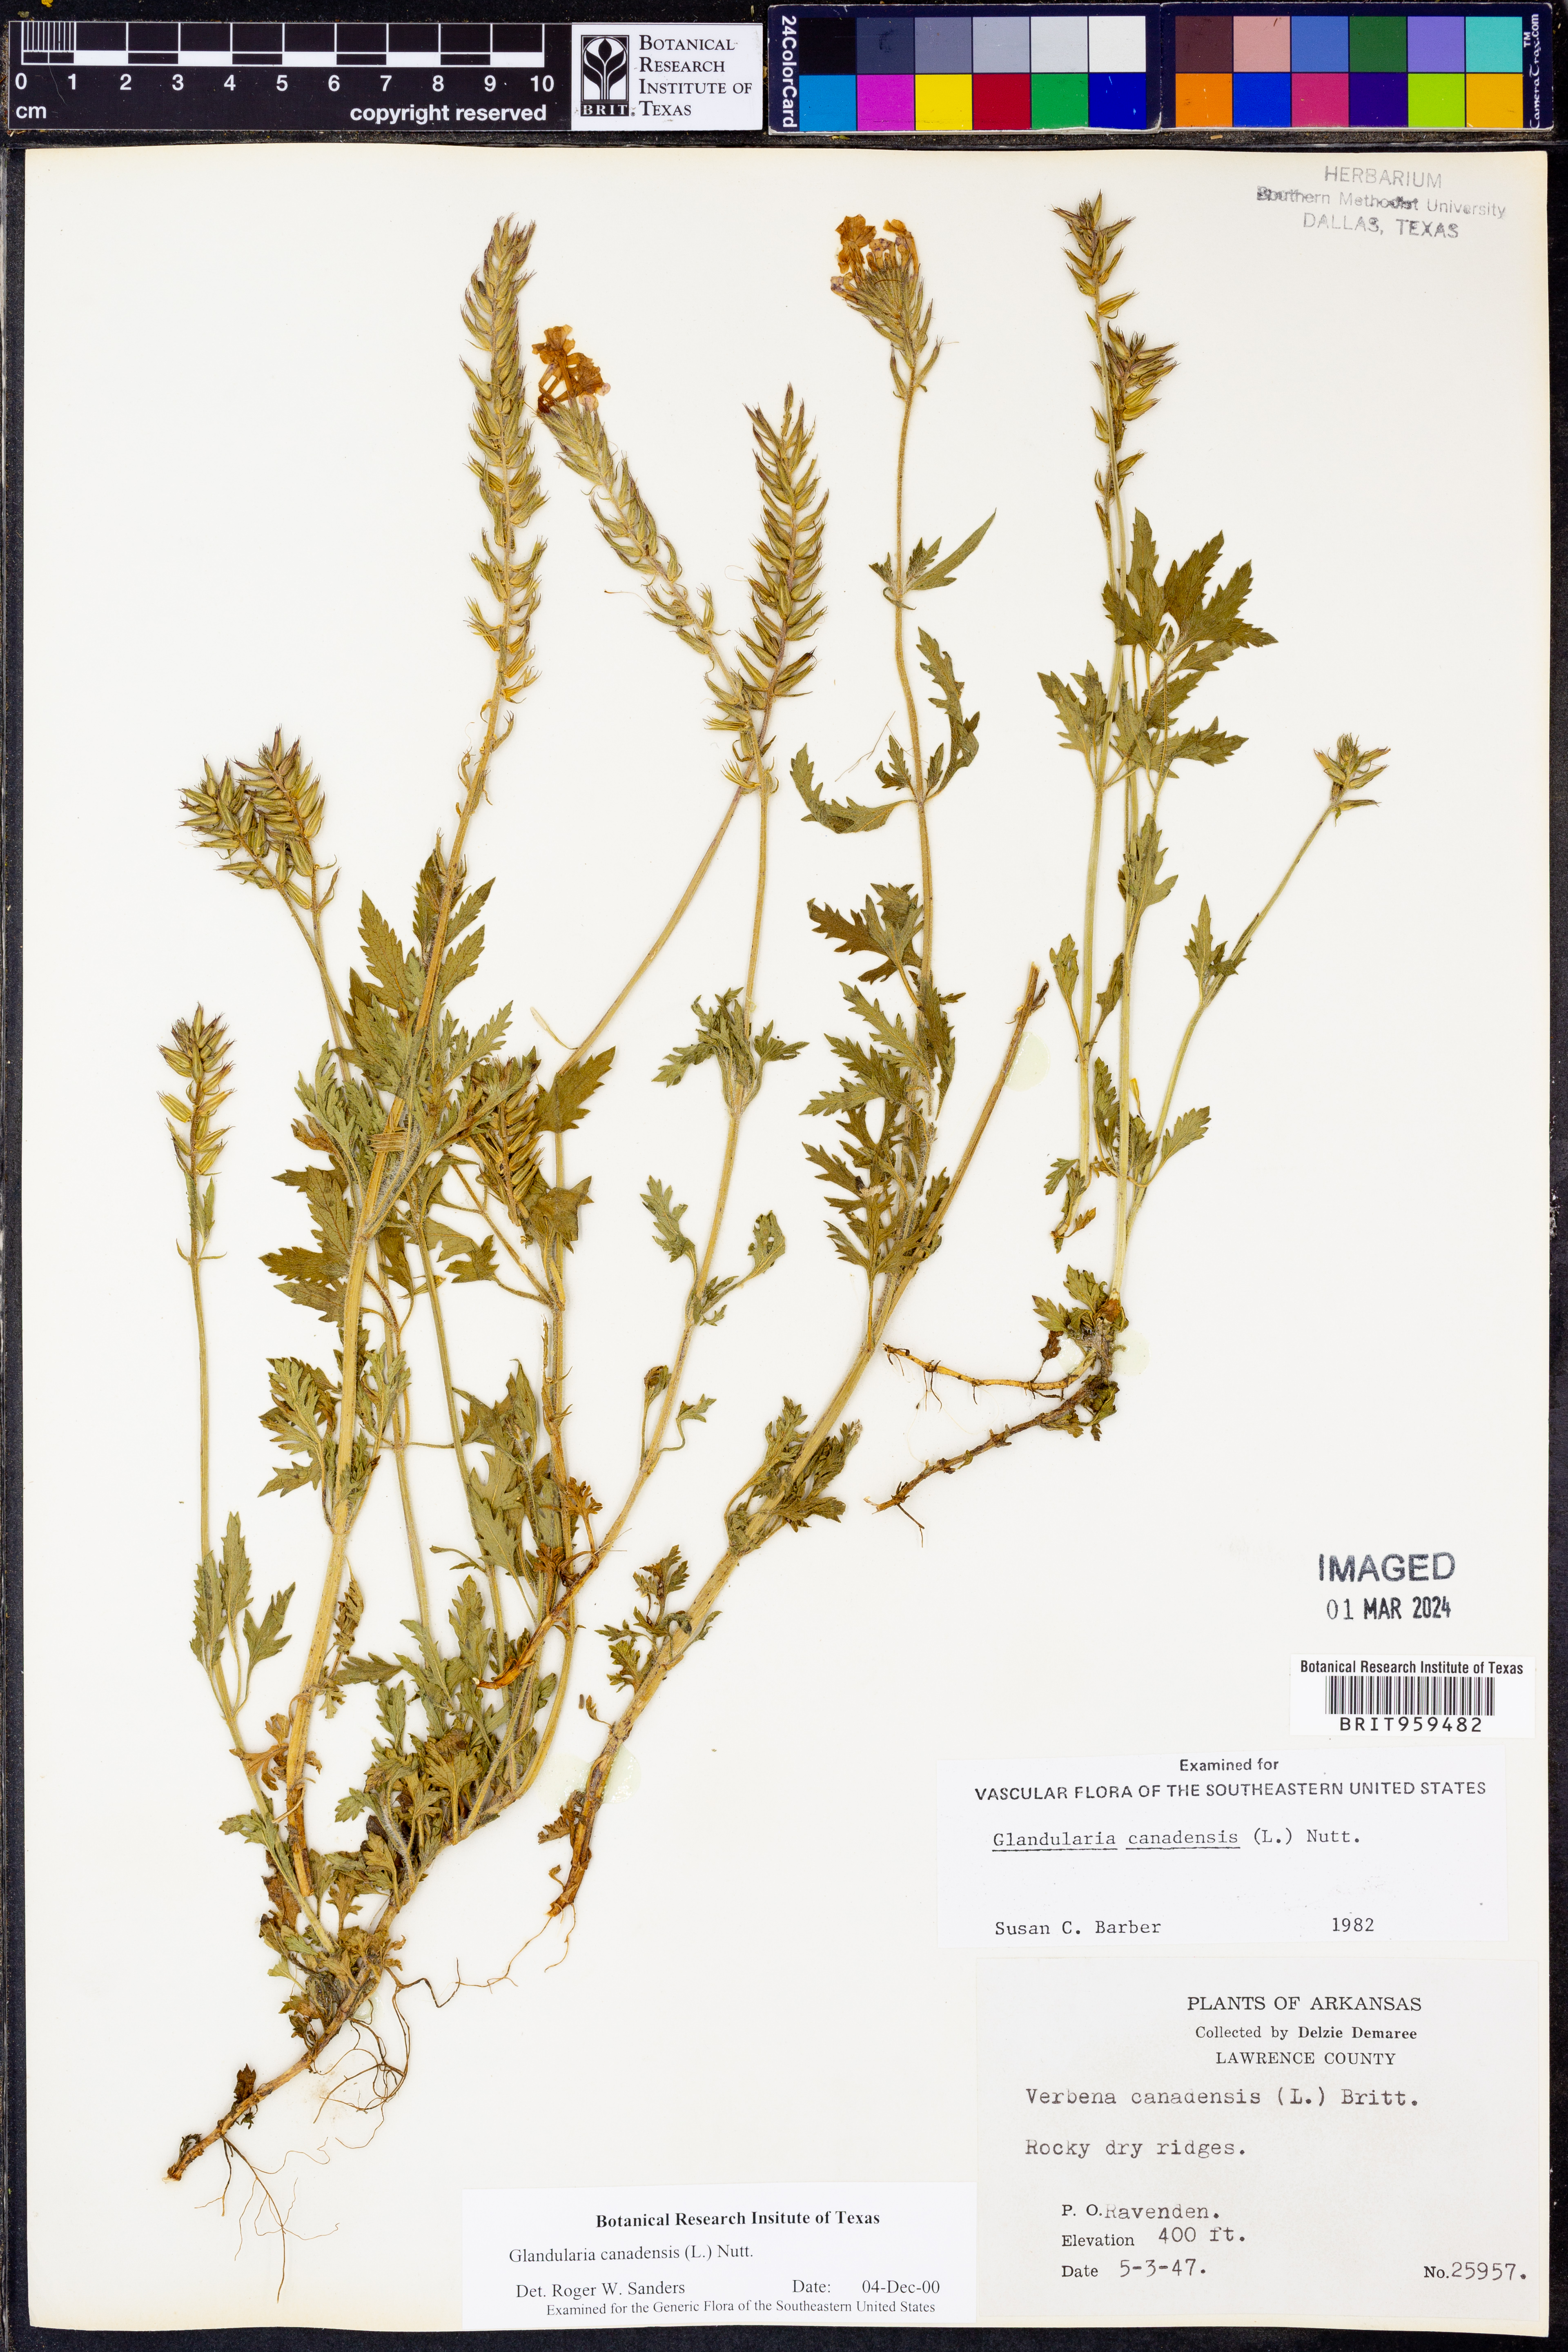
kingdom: Plantae
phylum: Tracheophyta
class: Magnoliopsida
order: Lamiales
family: Verbenaceae
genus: Verbena
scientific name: Verbena canadensis
